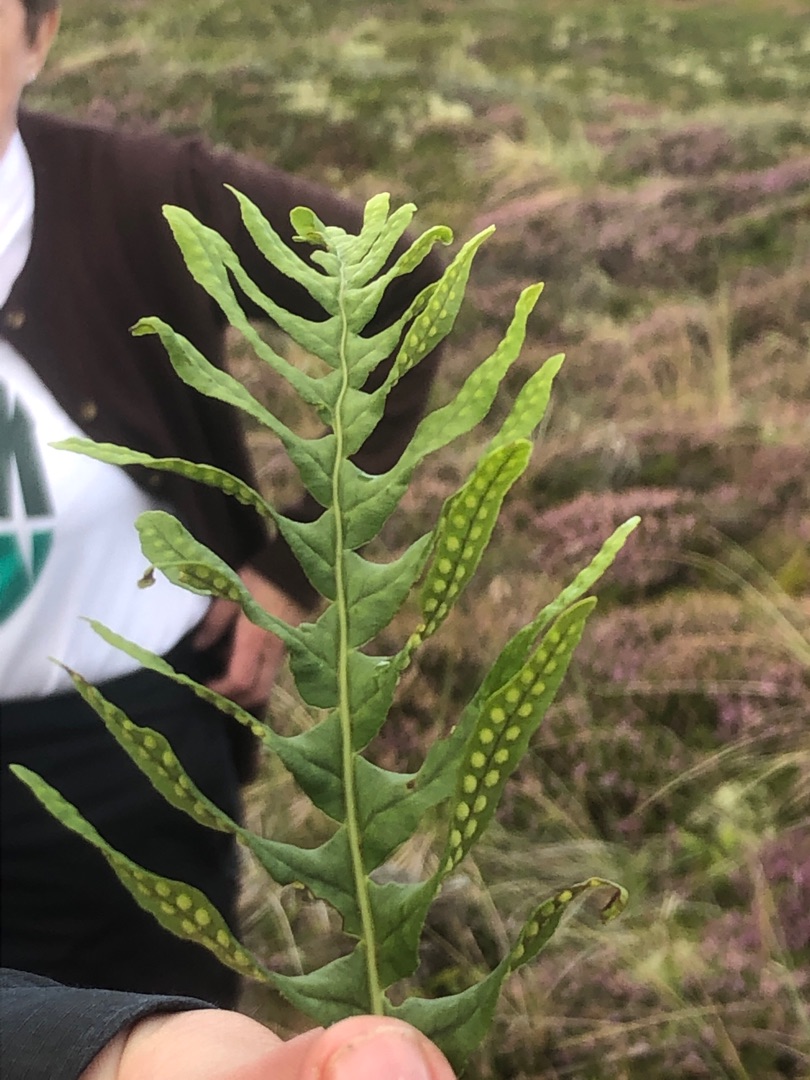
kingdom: Plantae
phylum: Tracheophyta
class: Polypodiopsida
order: Polypodiales
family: Polypodiaceae
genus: Polypodium
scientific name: Polypodium vulgare
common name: Almindelig engelsød
